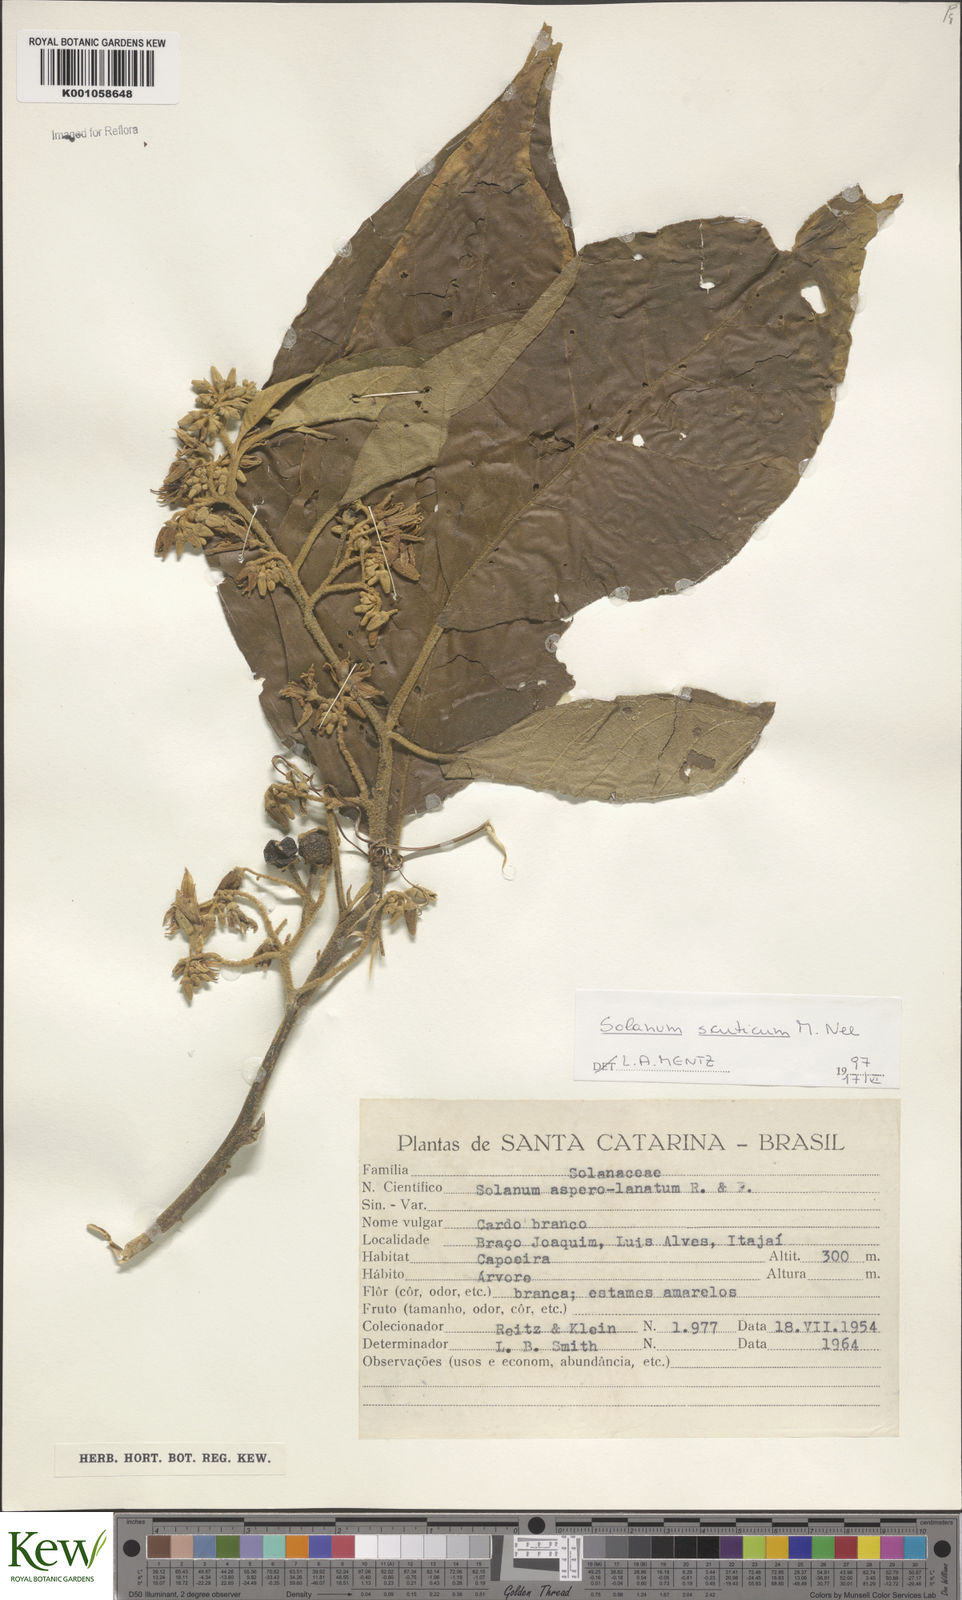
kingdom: Plantae
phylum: Tracheophyta
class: Magnoliopsida
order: Solanales
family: Solanaceae
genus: Solanum
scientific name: Solanum scuticum
